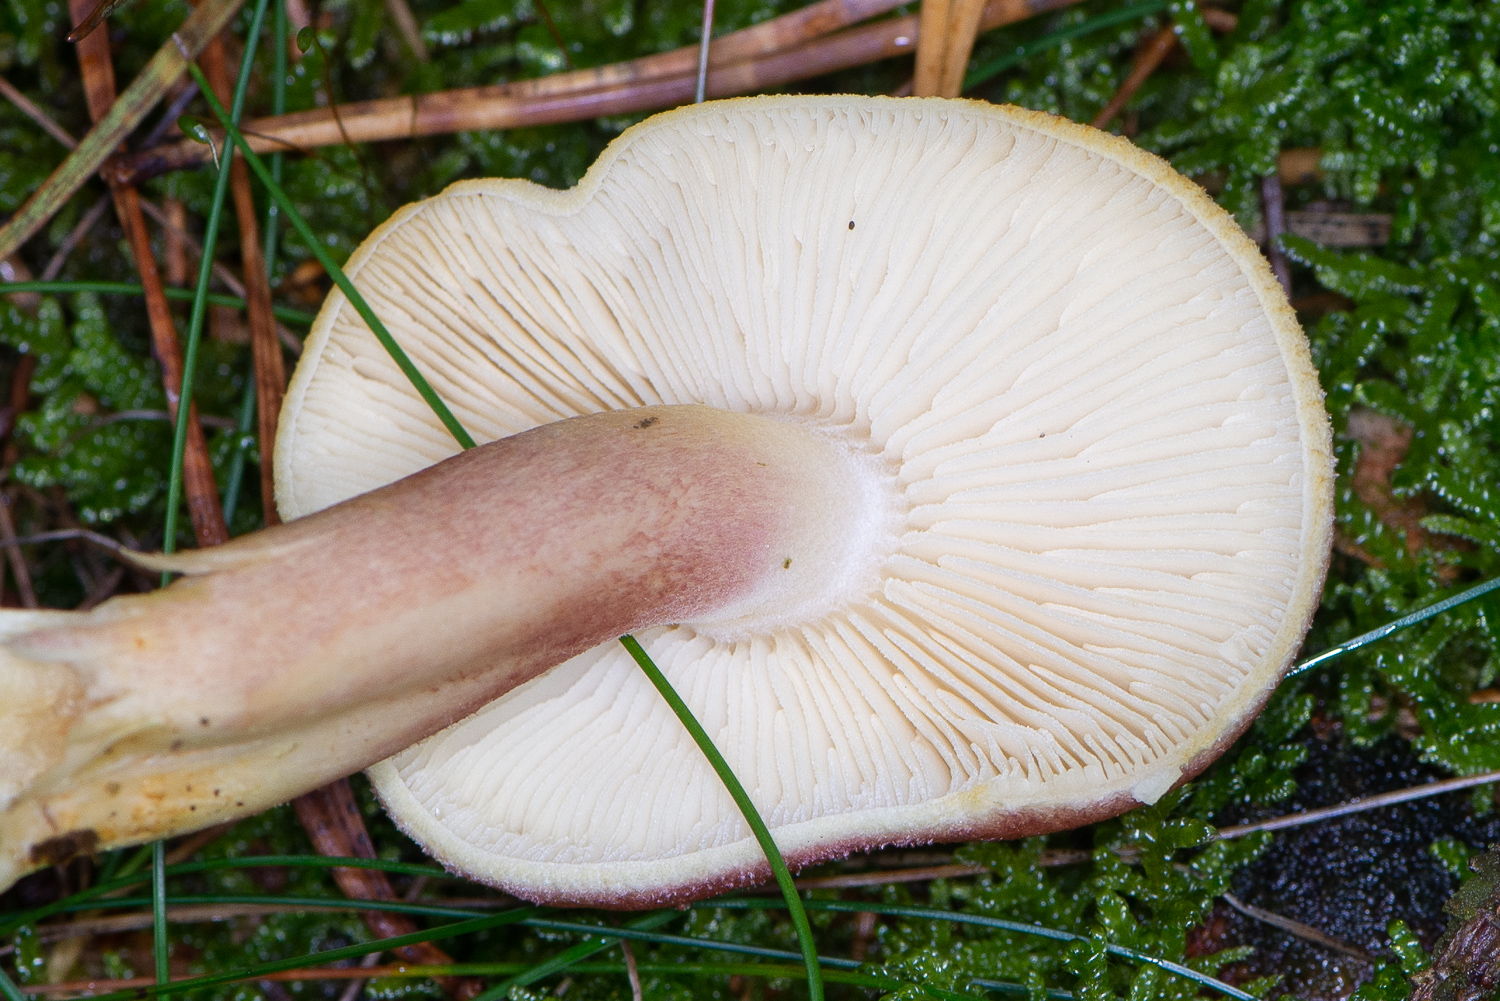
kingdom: Fungi
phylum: Basidiomycota
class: Agaricomycetes
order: Agaricales
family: Tricholomataceae
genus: Tricholomopsis
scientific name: Tricholomopsis rutilans
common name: purpur-væbnerhat
